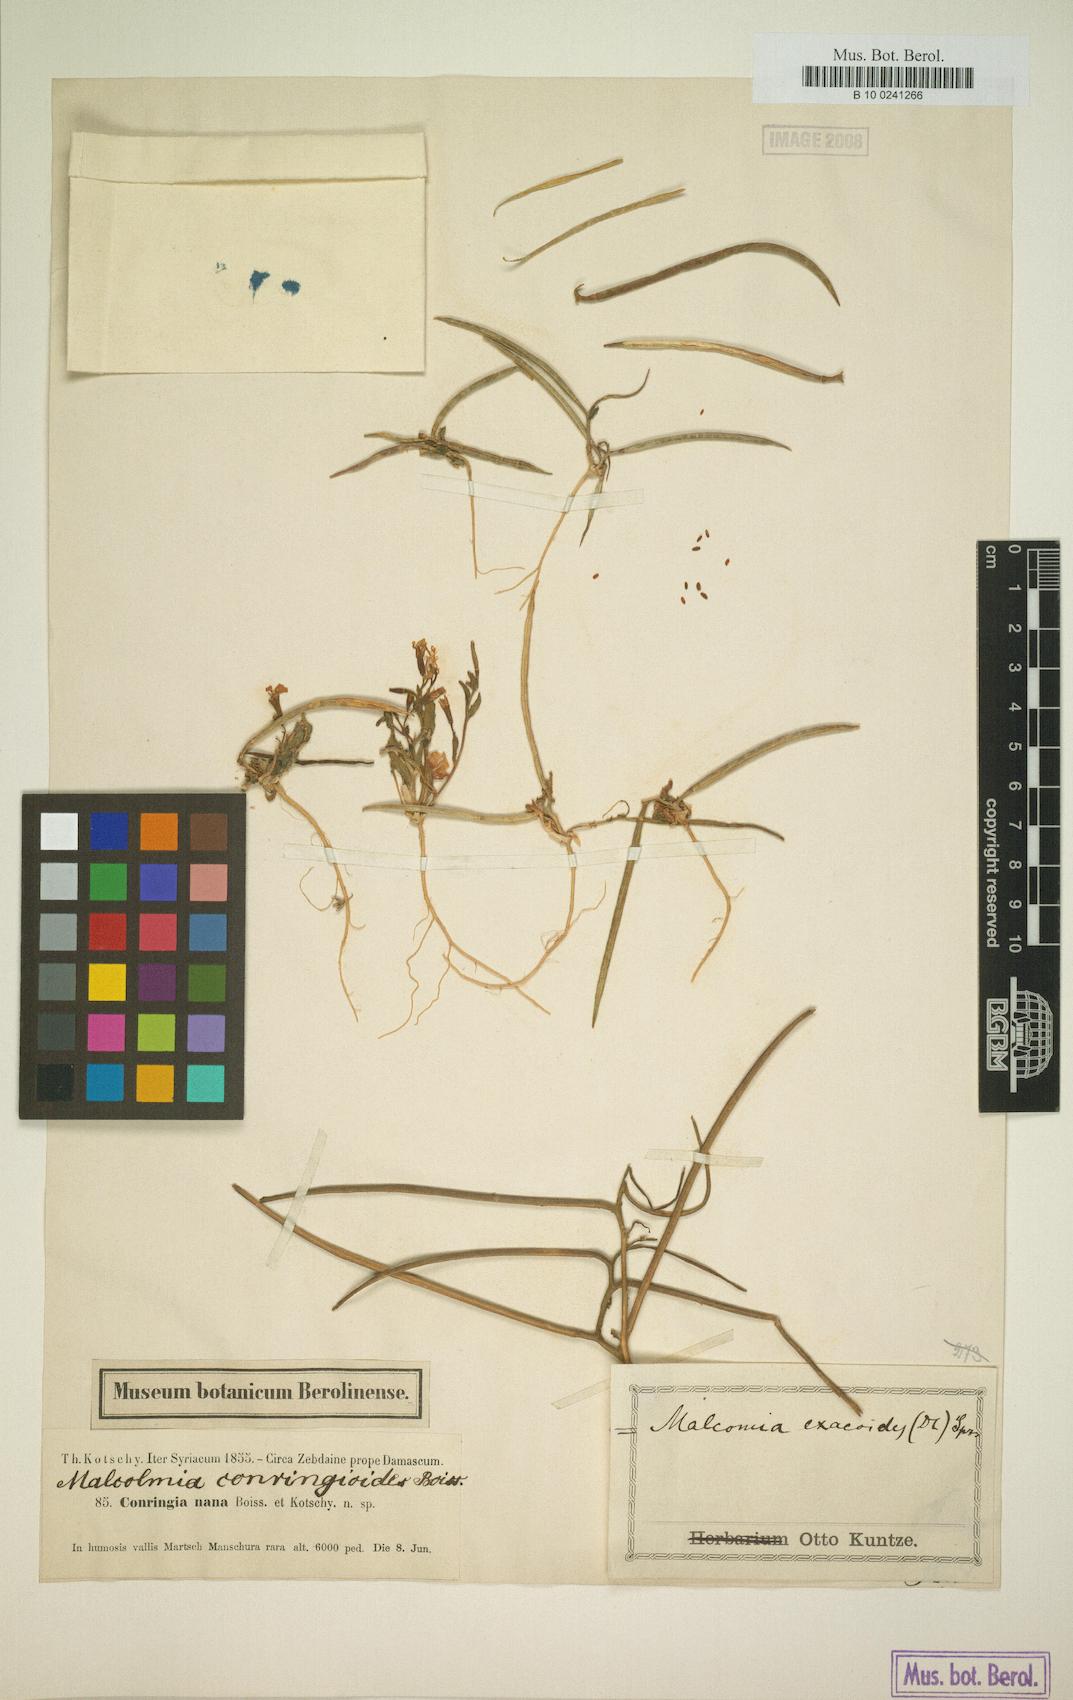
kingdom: Plantae
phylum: Tracheophyta
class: Magnoliopsida
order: Brassicales
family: Brassicaceae
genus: Zuvanda
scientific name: Zuvanda exacoides
